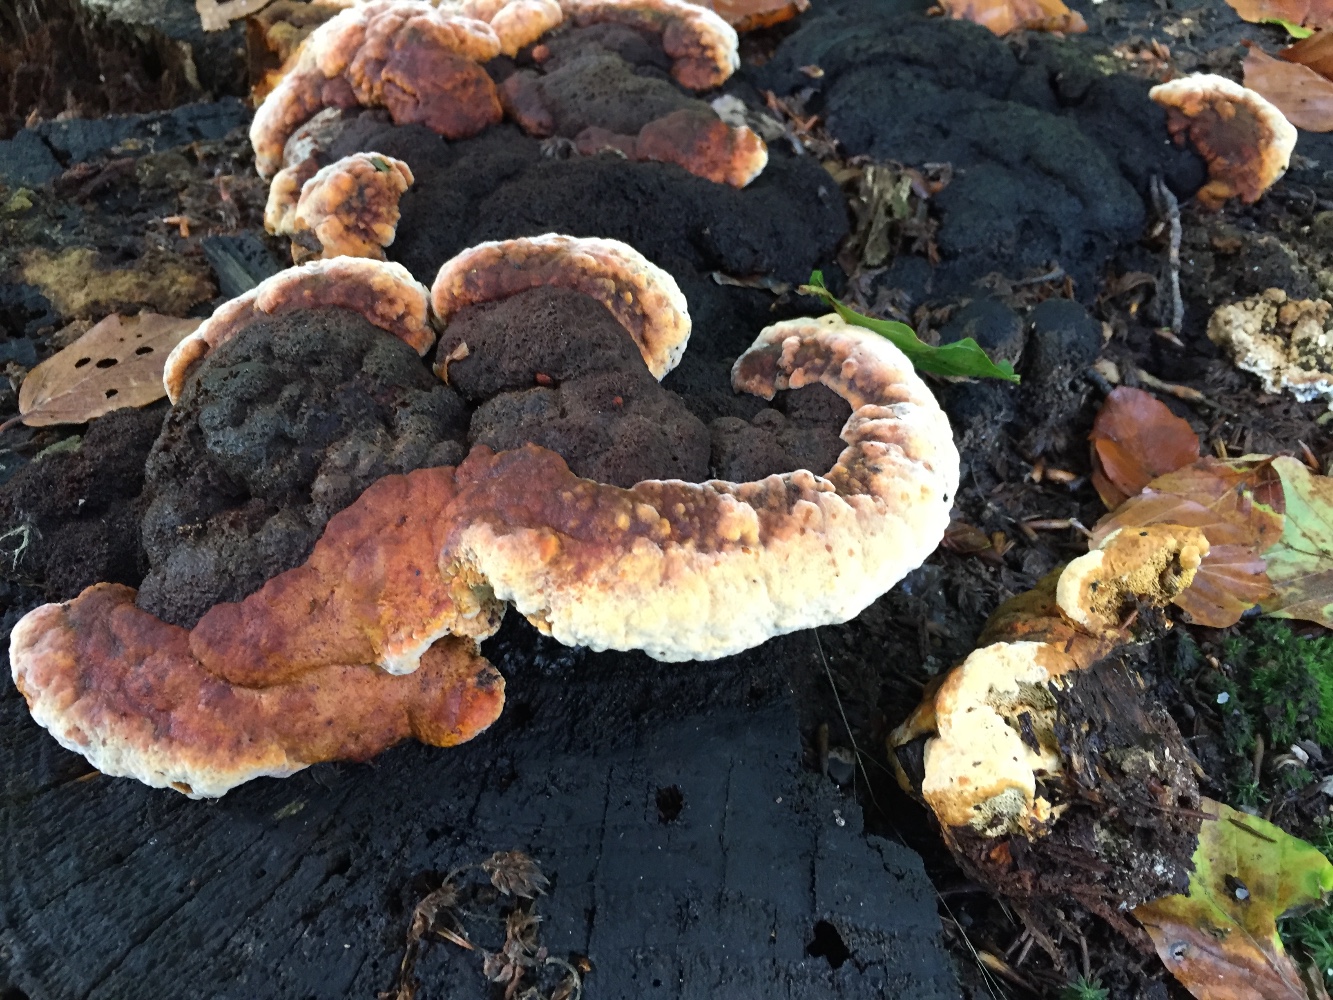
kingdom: Fungi
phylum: Basidiomycota
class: Agaricomycetes
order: Gloeophyllales
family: Gloeophyllaceae
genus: Gloeophyllum
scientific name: Gloeophyllum odoratum
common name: duftende korkhat
